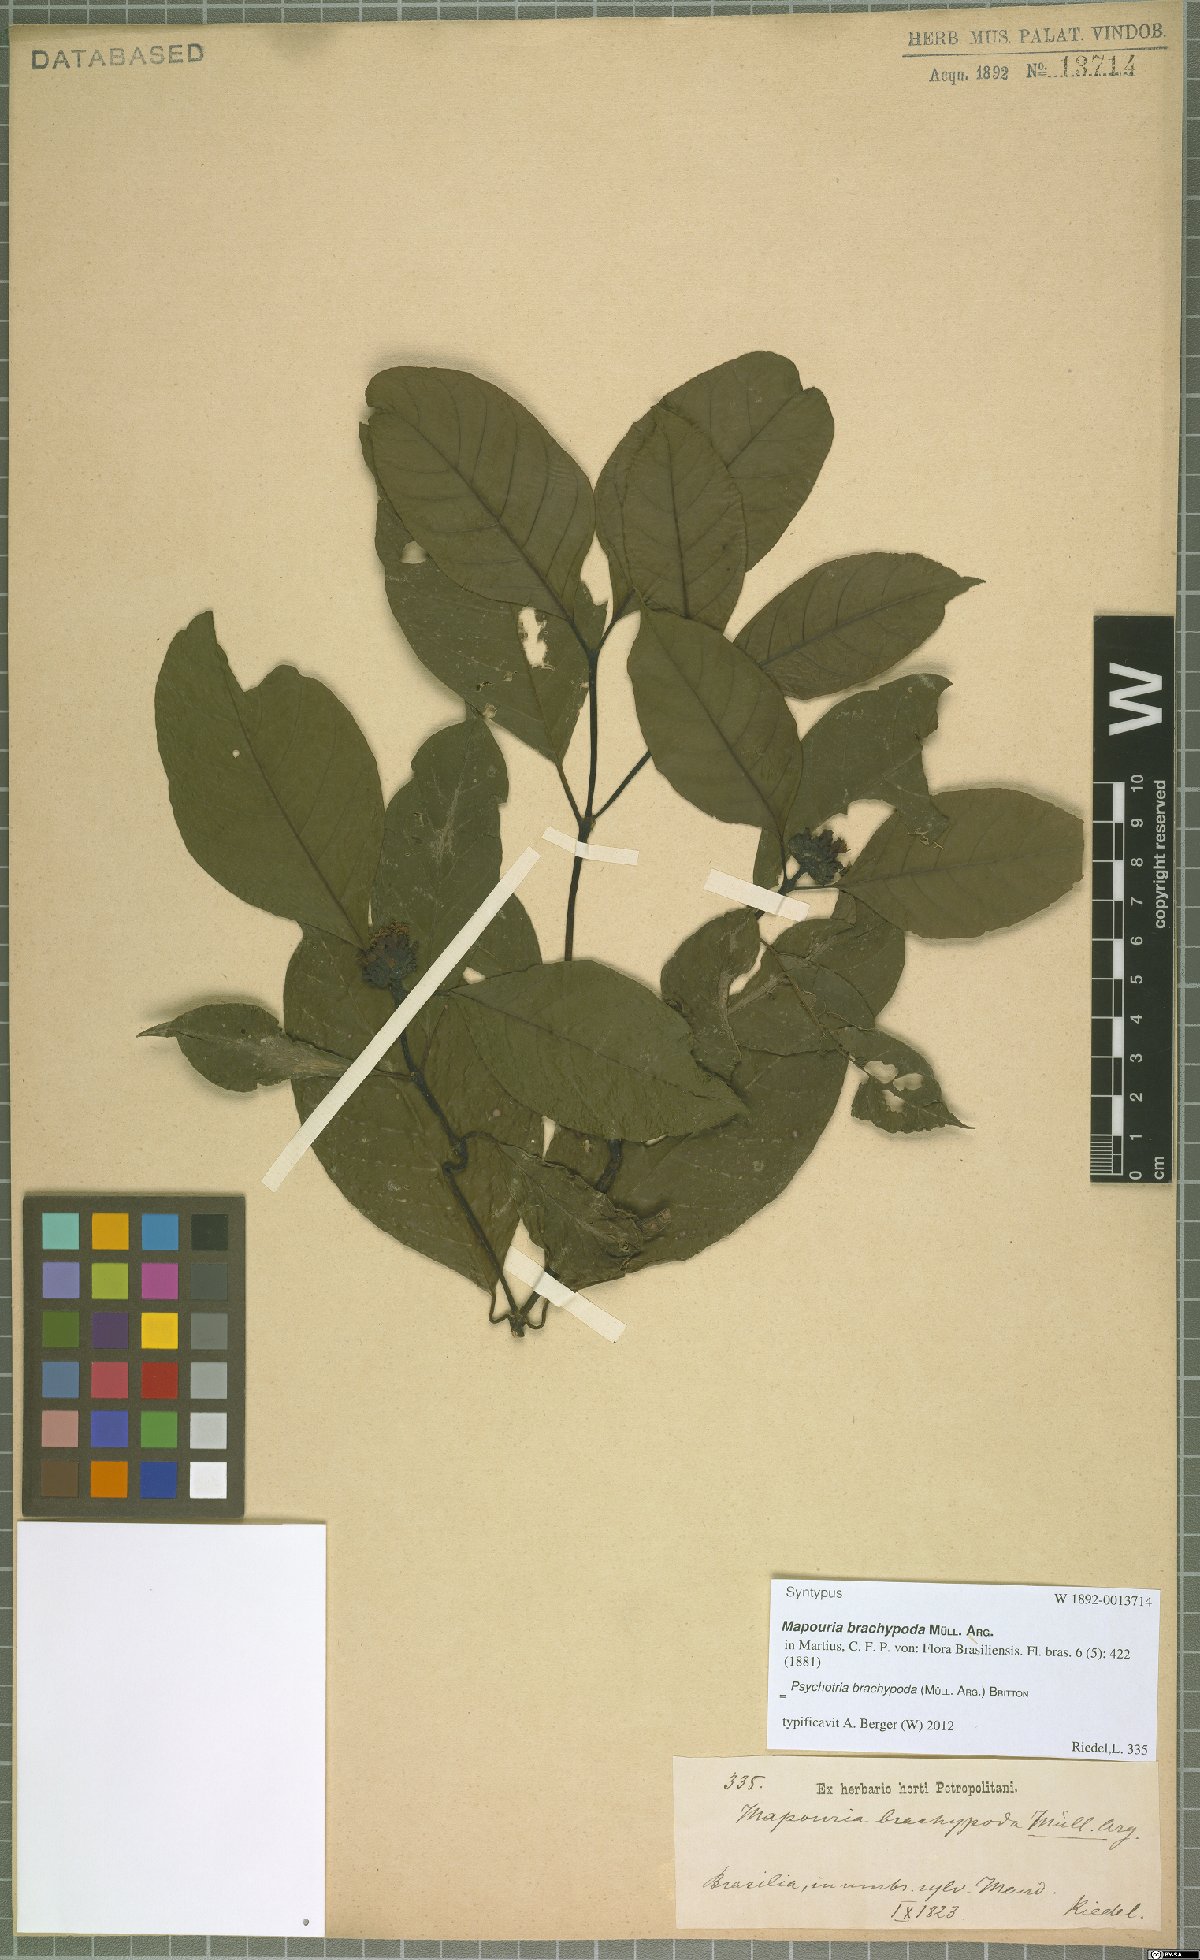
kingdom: Plantae
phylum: Tracheophyta
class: Magnoliopsida
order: Gentianales
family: Rubiaceae
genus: Psychotria
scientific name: Psychotria brachypoda
